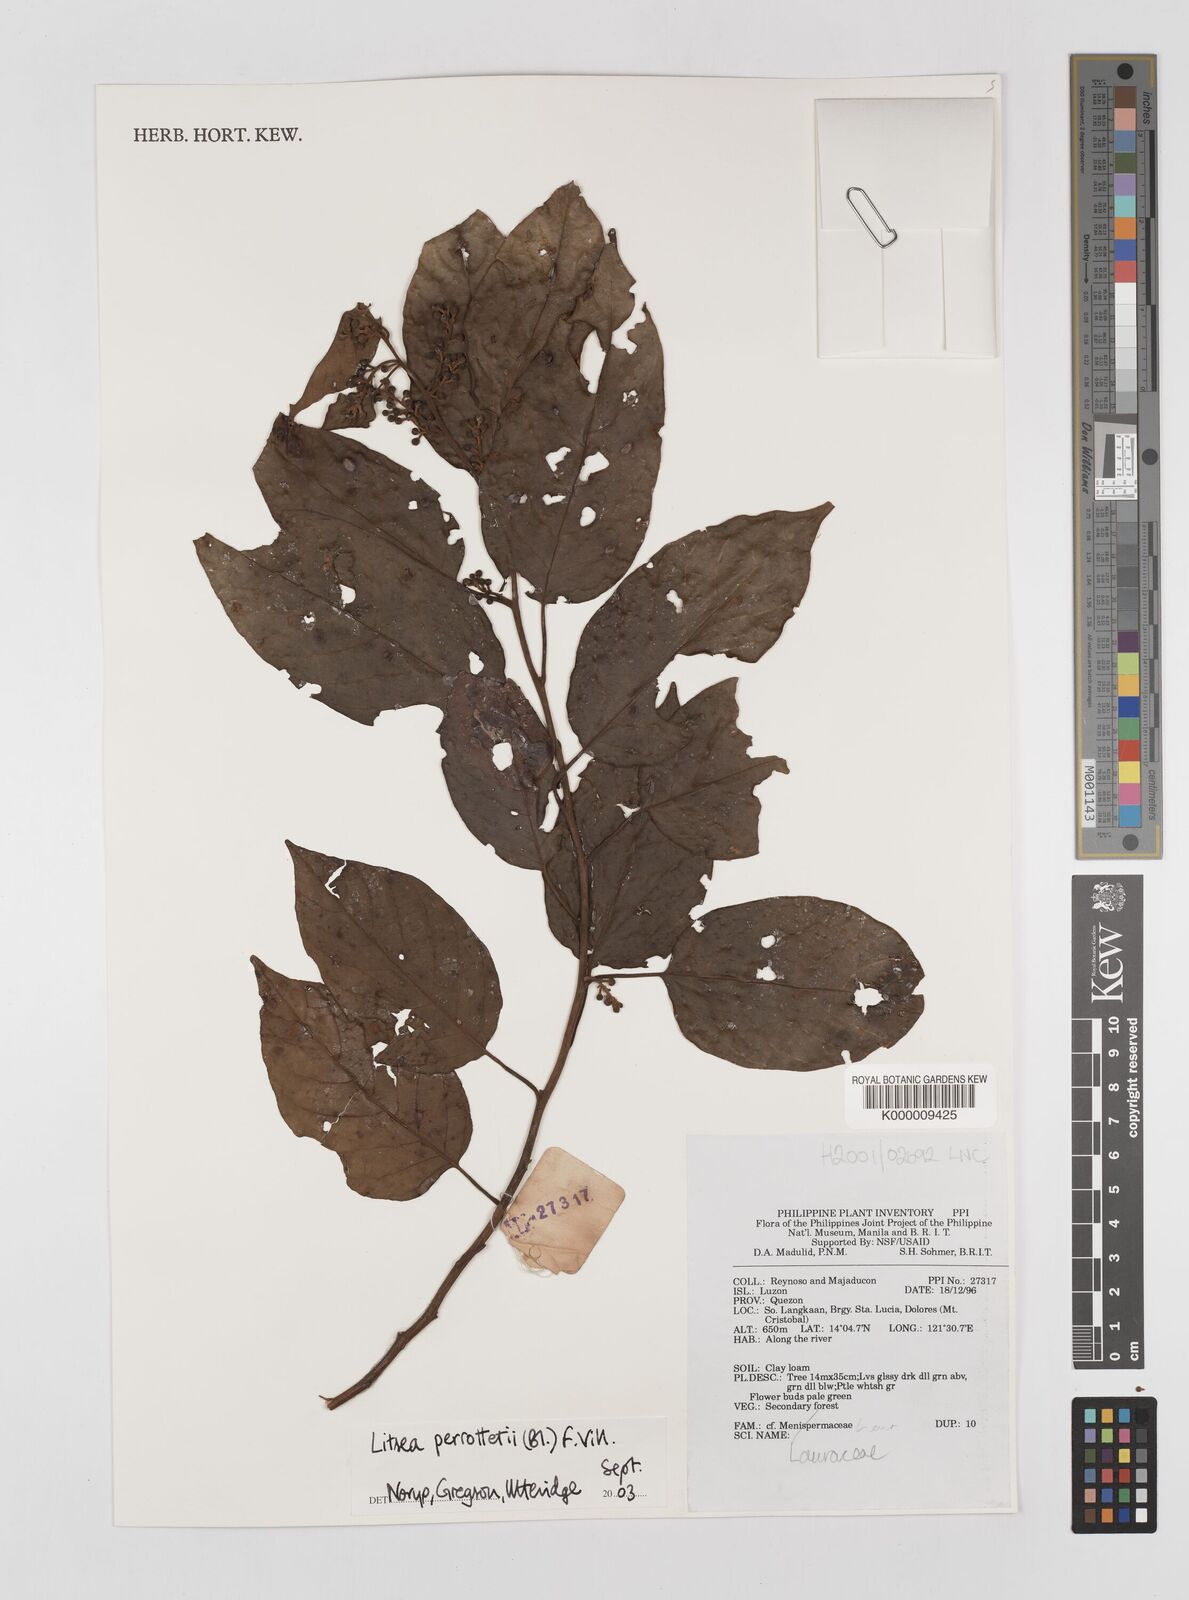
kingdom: Plantae
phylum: Tracheophyta
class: Magnoliopsida
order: Laurales
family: Lauraceae
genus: Litsea
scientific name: Litsea cordata
